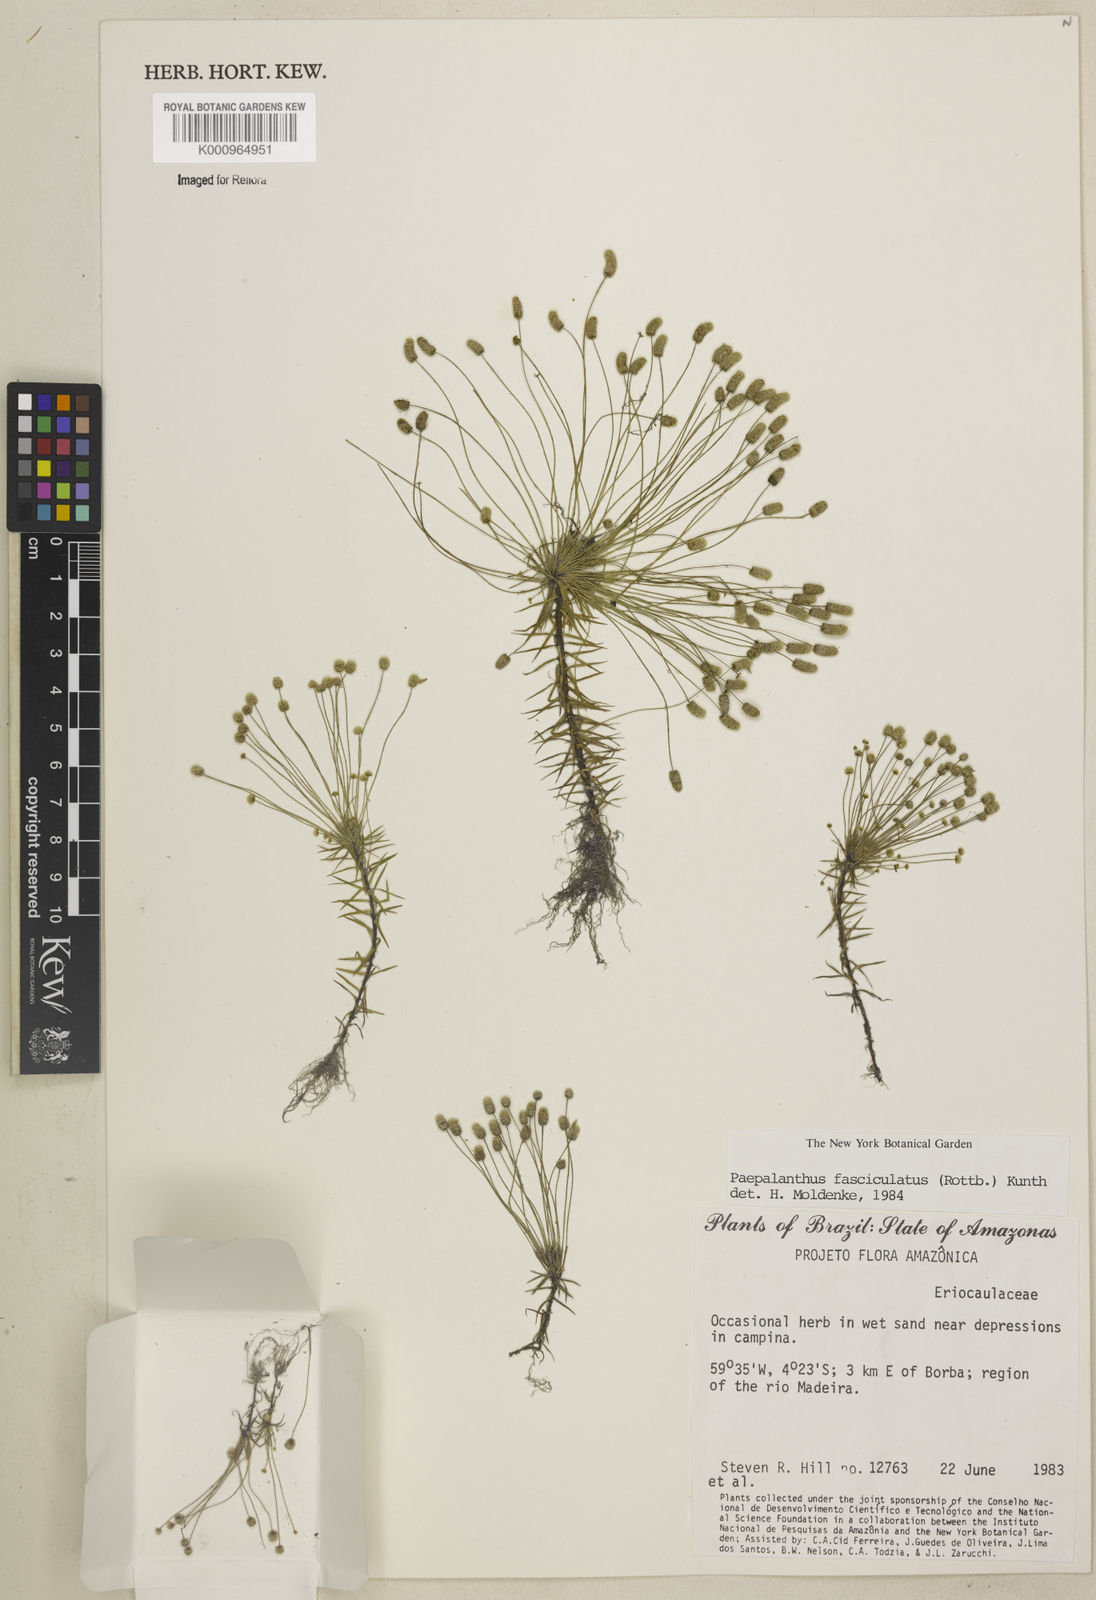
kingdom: Plantae
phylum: Tracheophyta
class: Liliopsida
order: Poales
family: Eriocaulaceae
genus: Paepalanthus
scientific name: Paepalanthus fasciculatus
